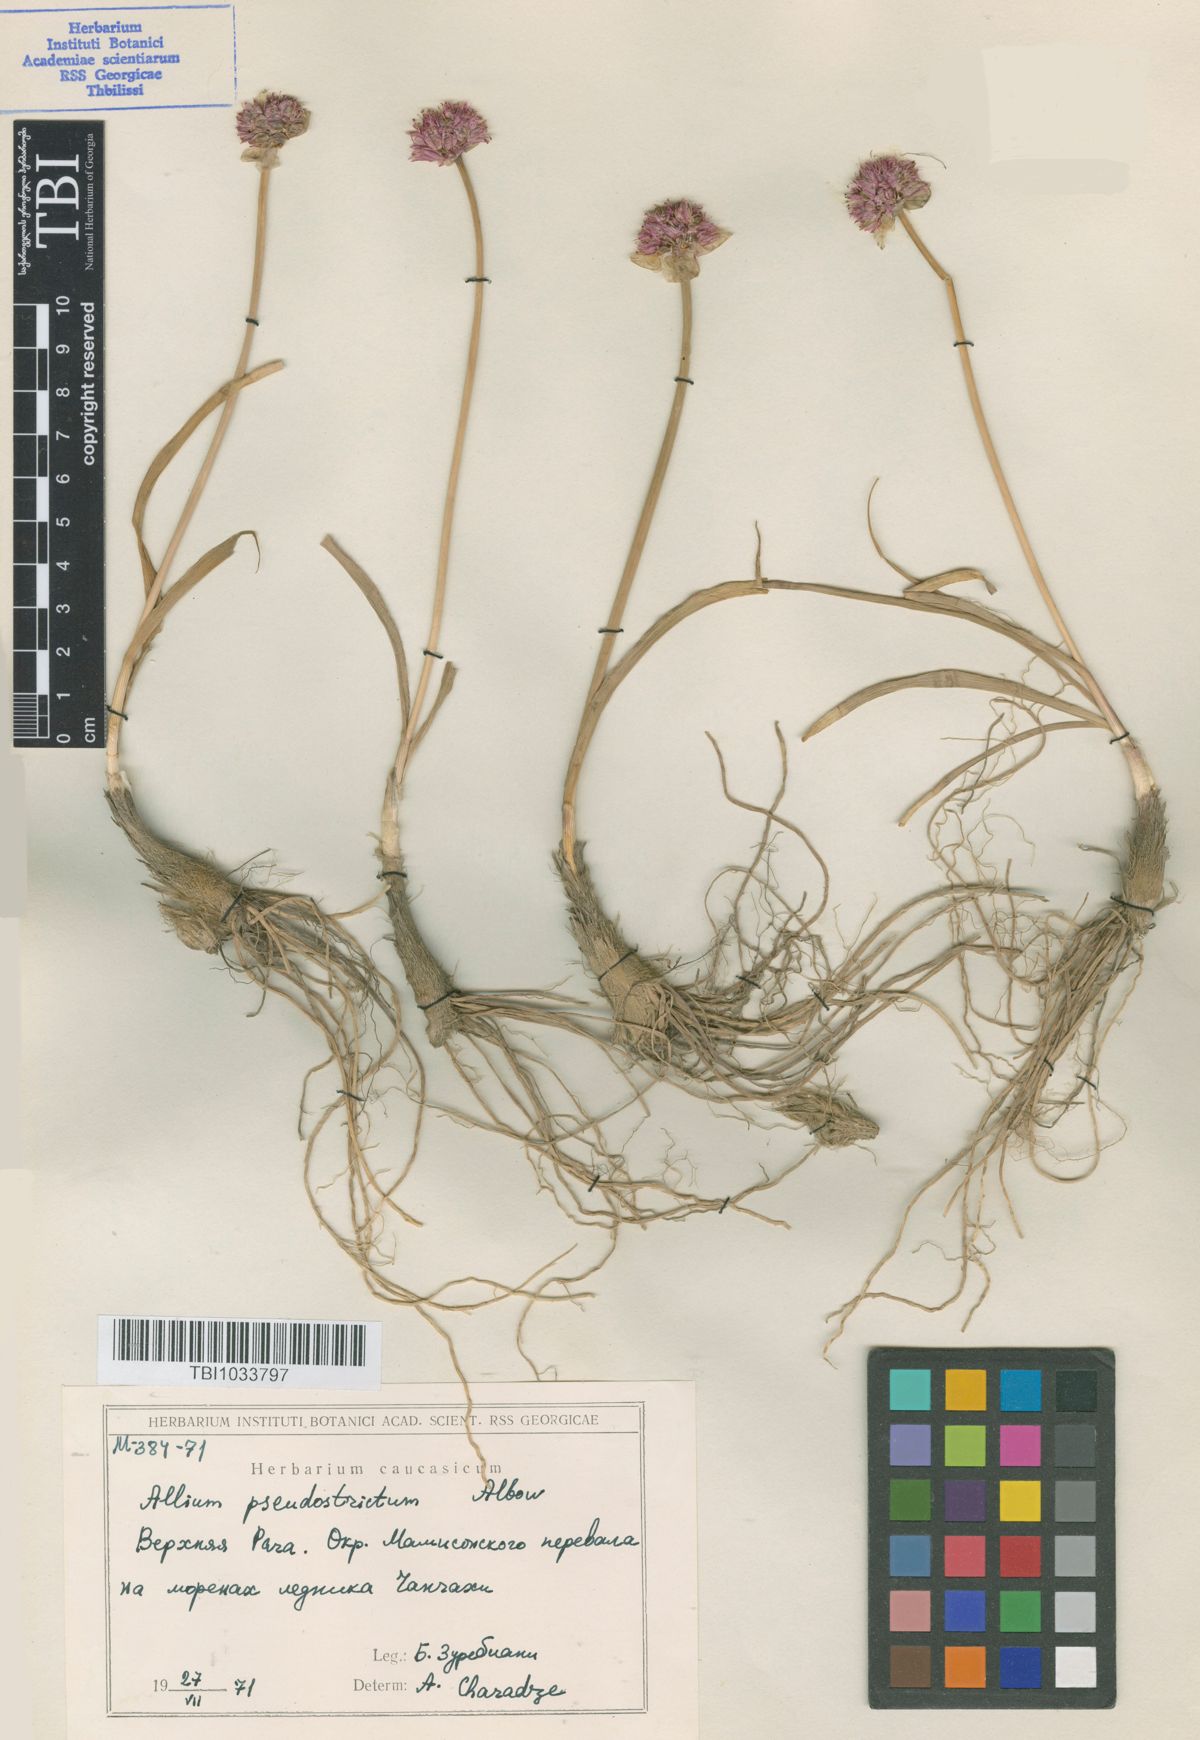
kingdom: Plantae
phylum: Tracheophyta
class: Liliopsida
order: Asparagales
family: Amaryllidaceae
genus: Allium
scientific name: Allium pseudostrictum
